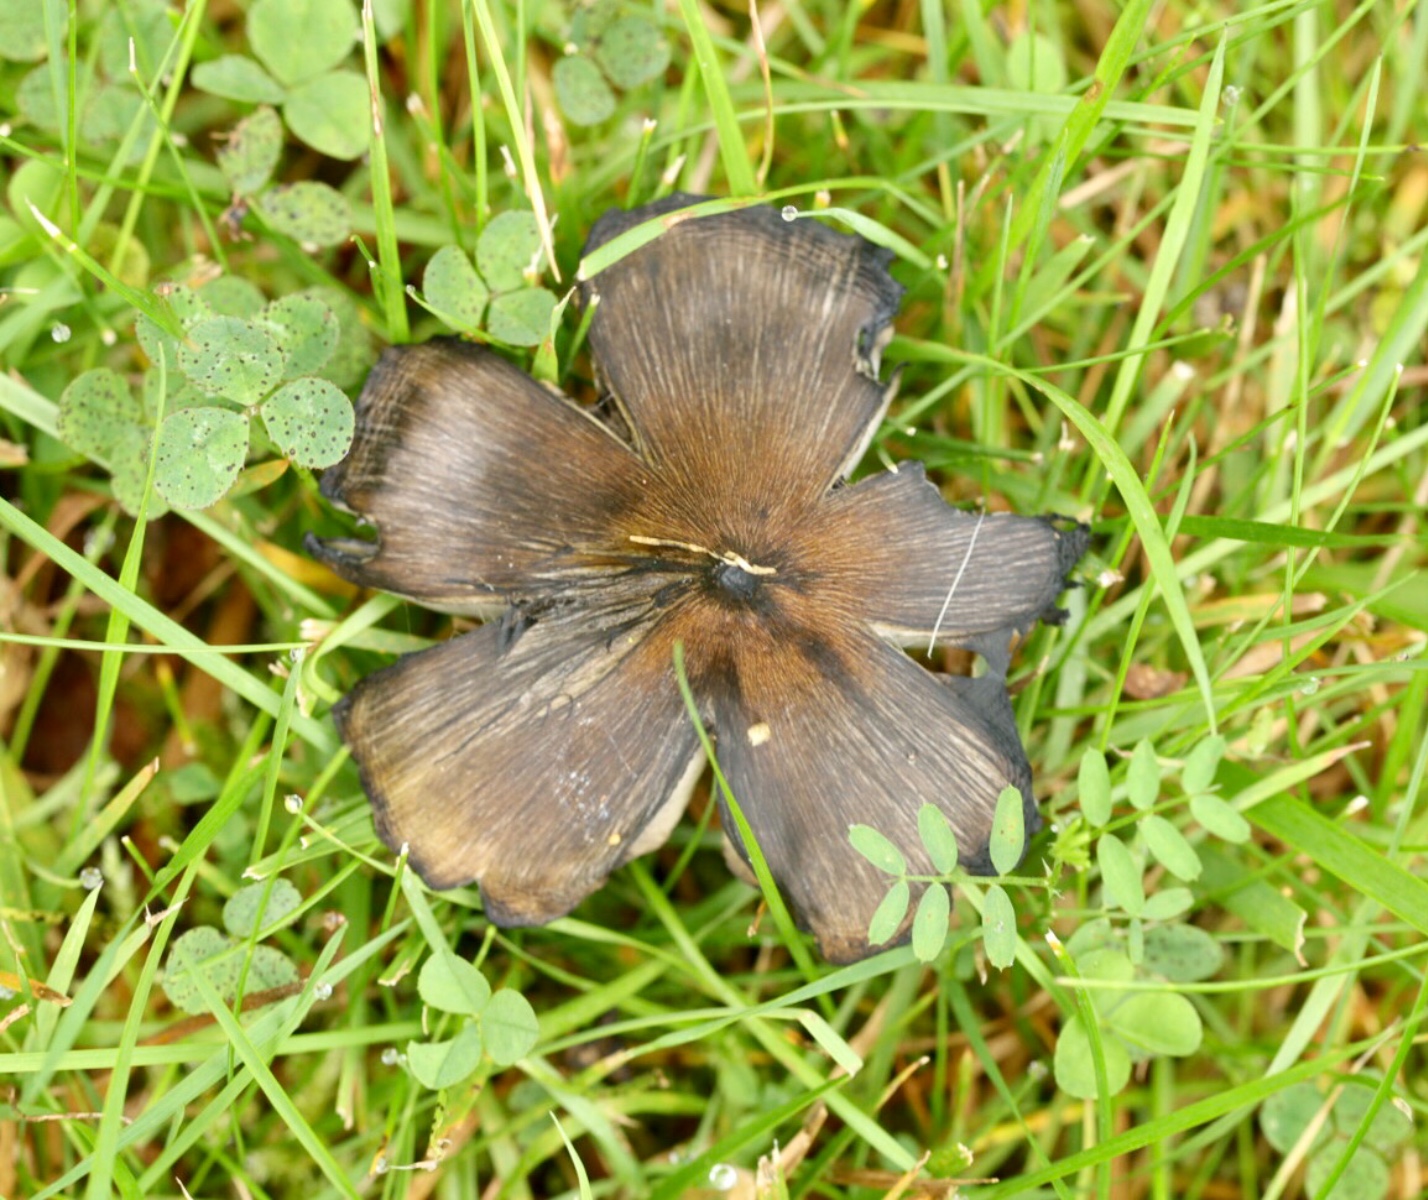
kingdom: Fungi
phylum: Basidiomycota
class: Agaricomycetes
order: Agaricales
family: Hygrophoraceae
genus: Hygrocybe
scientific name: Hygrocybe conica
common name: kegle-vokshat
